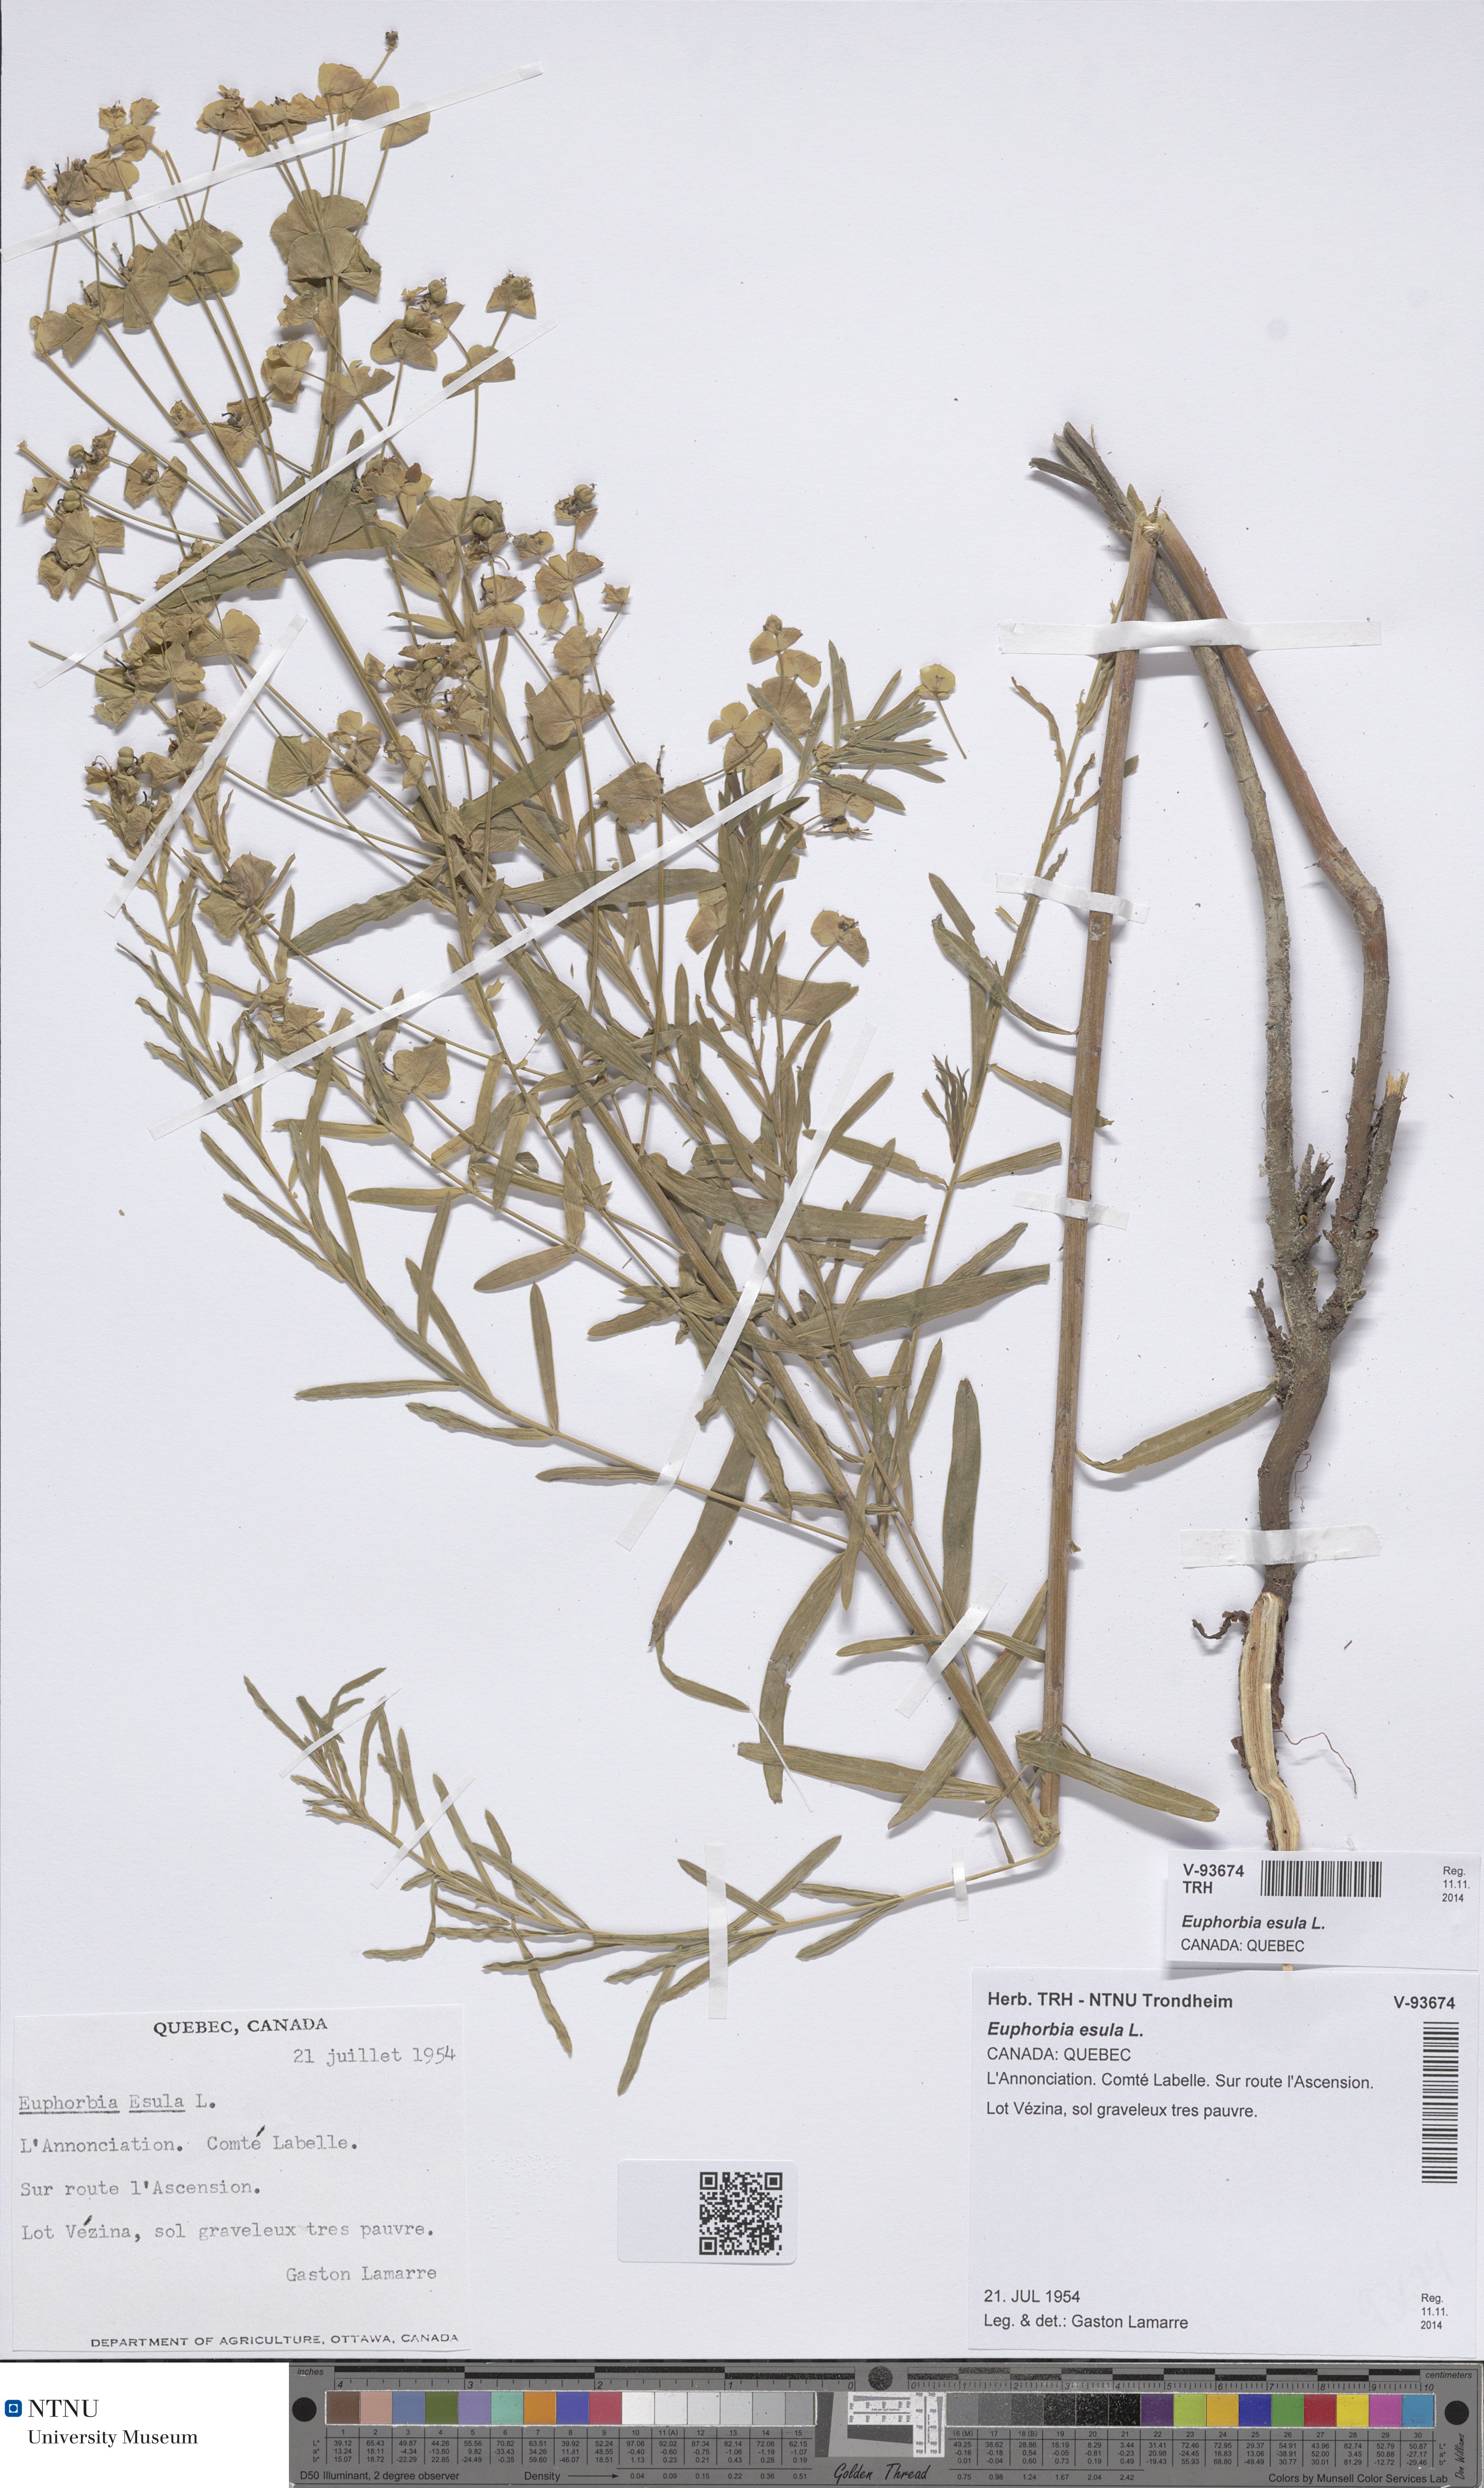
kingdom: Plantae
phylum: Tracheophyta
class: Magnoliopsida
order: Malpighiales
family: Euphorbiaceae
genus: Euphorbia
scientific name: Euphorbia esula
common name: Leafy spurge
